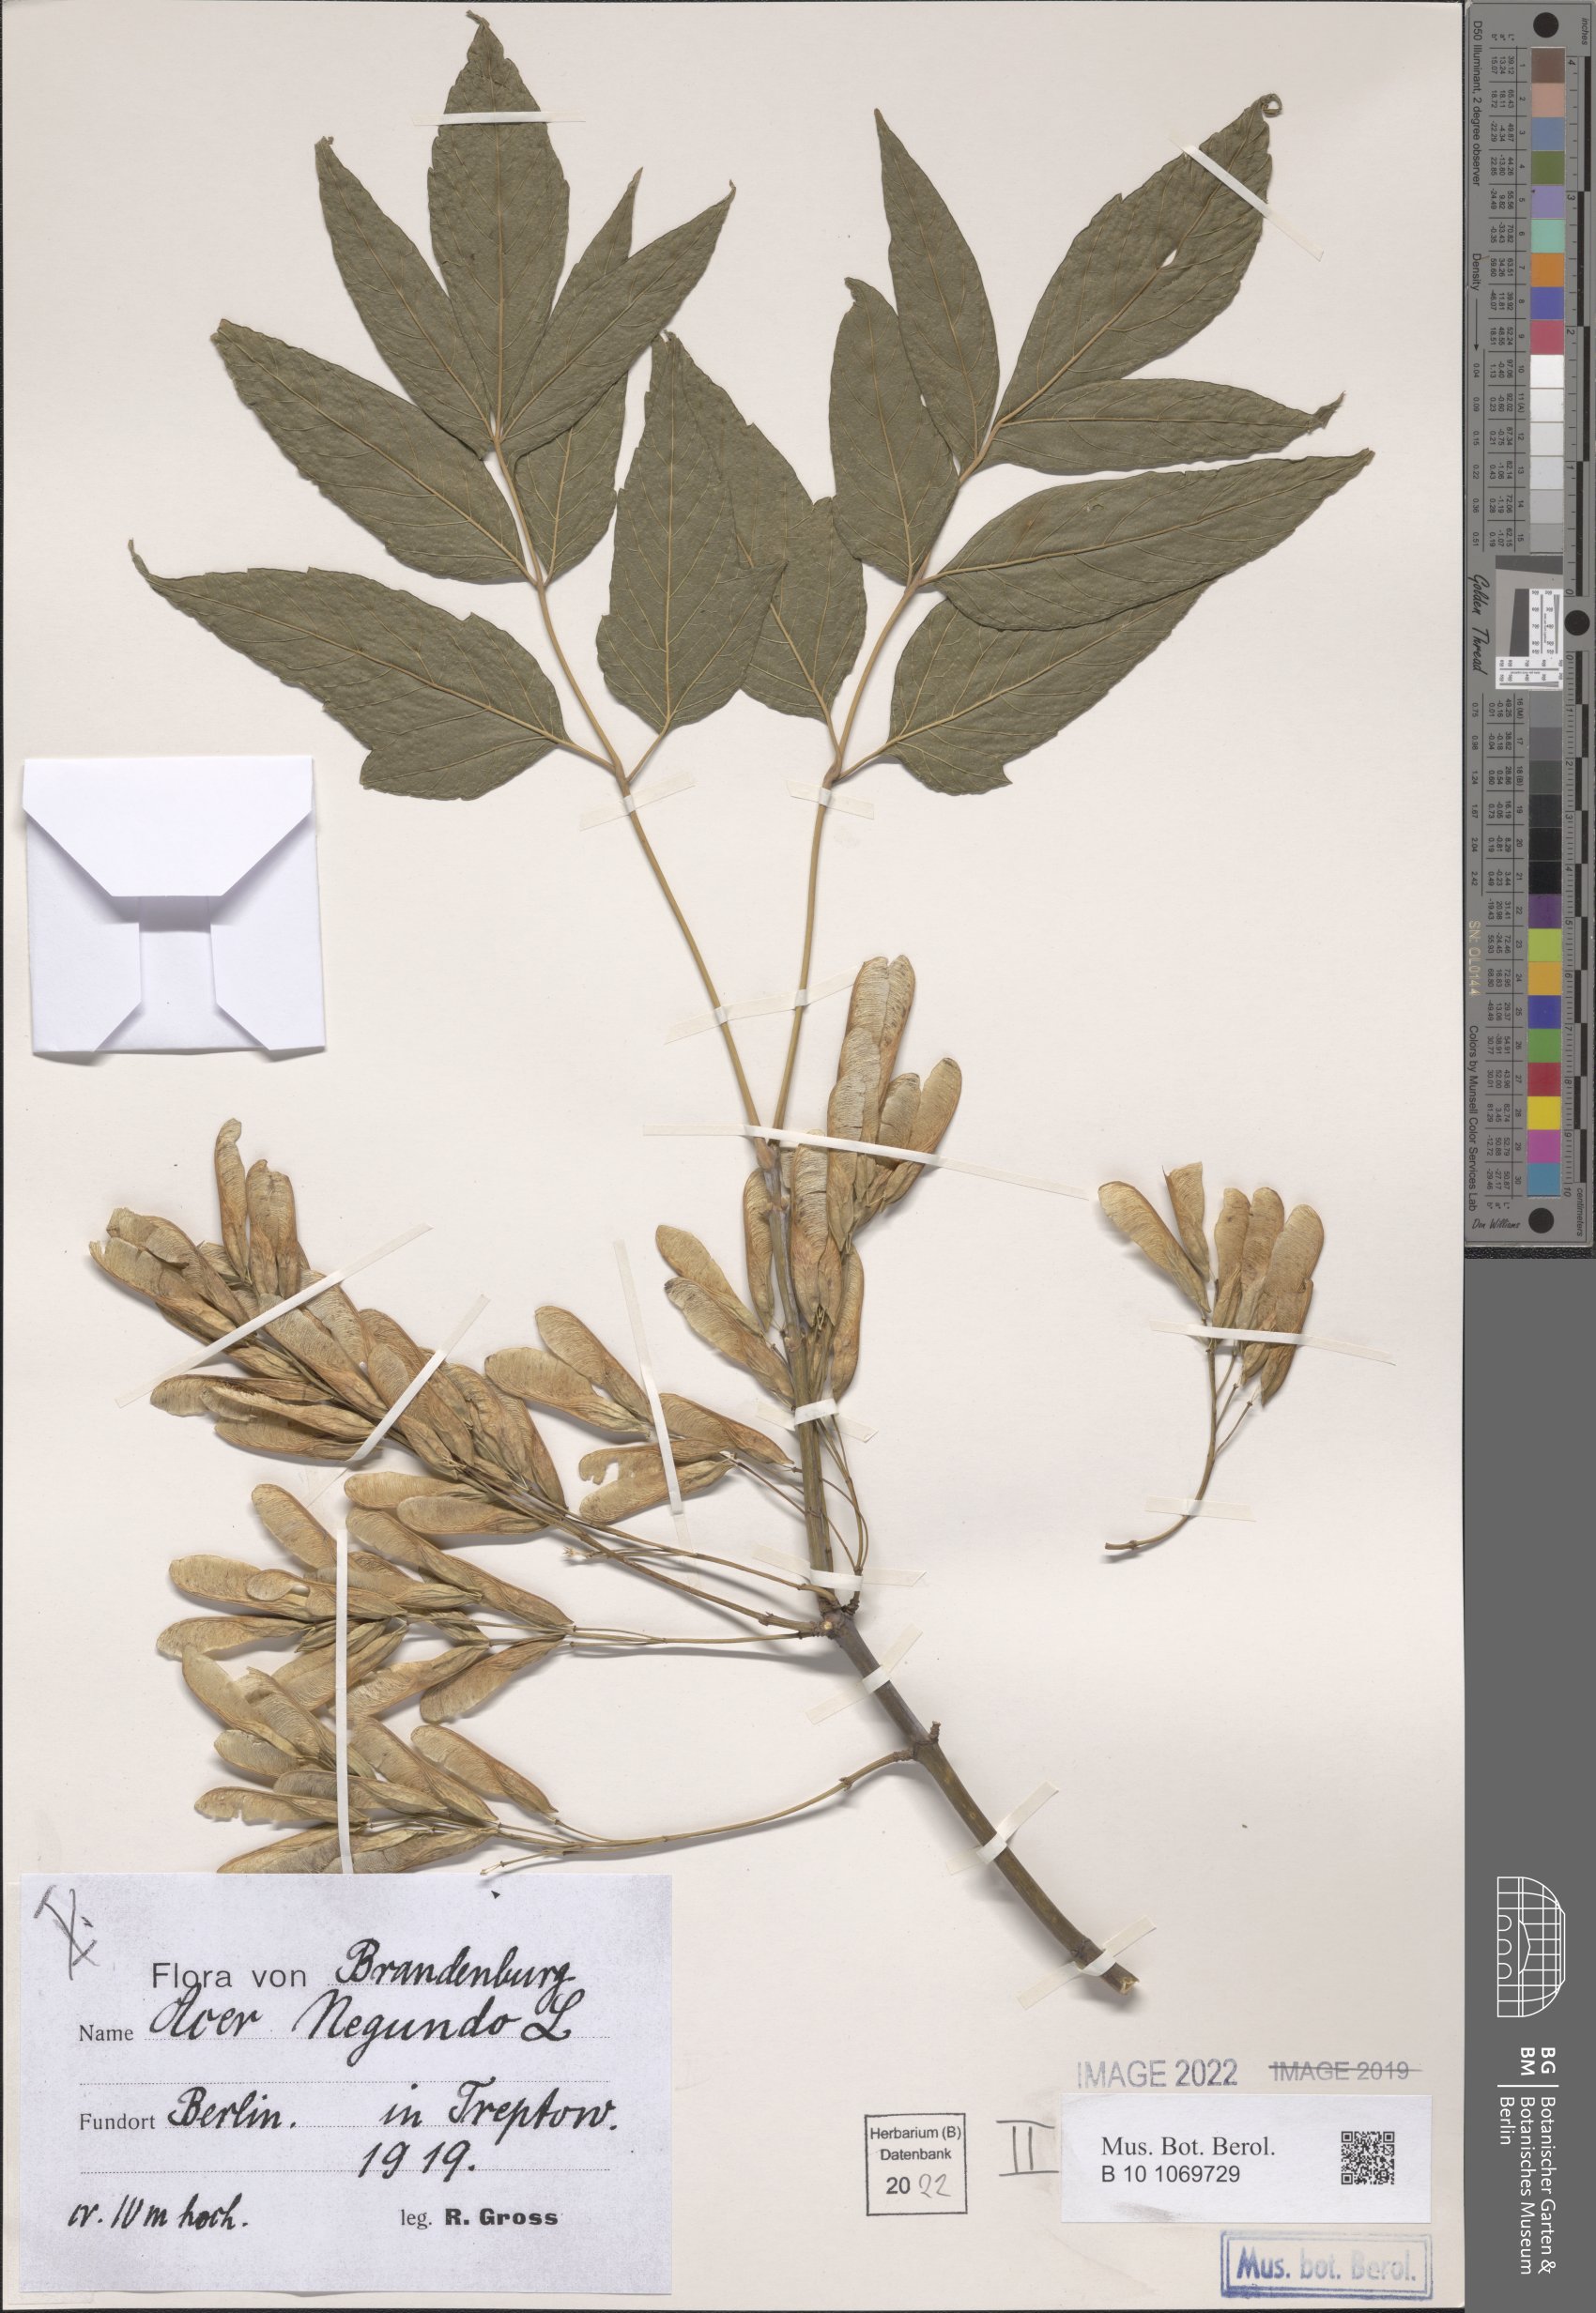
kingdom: Plantae
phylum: Tracheophyta
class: Magnoliopsida
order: Sapindales
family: Sapindaceae
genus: Acer
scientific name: Acer negundo
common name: Ashleaf maple
